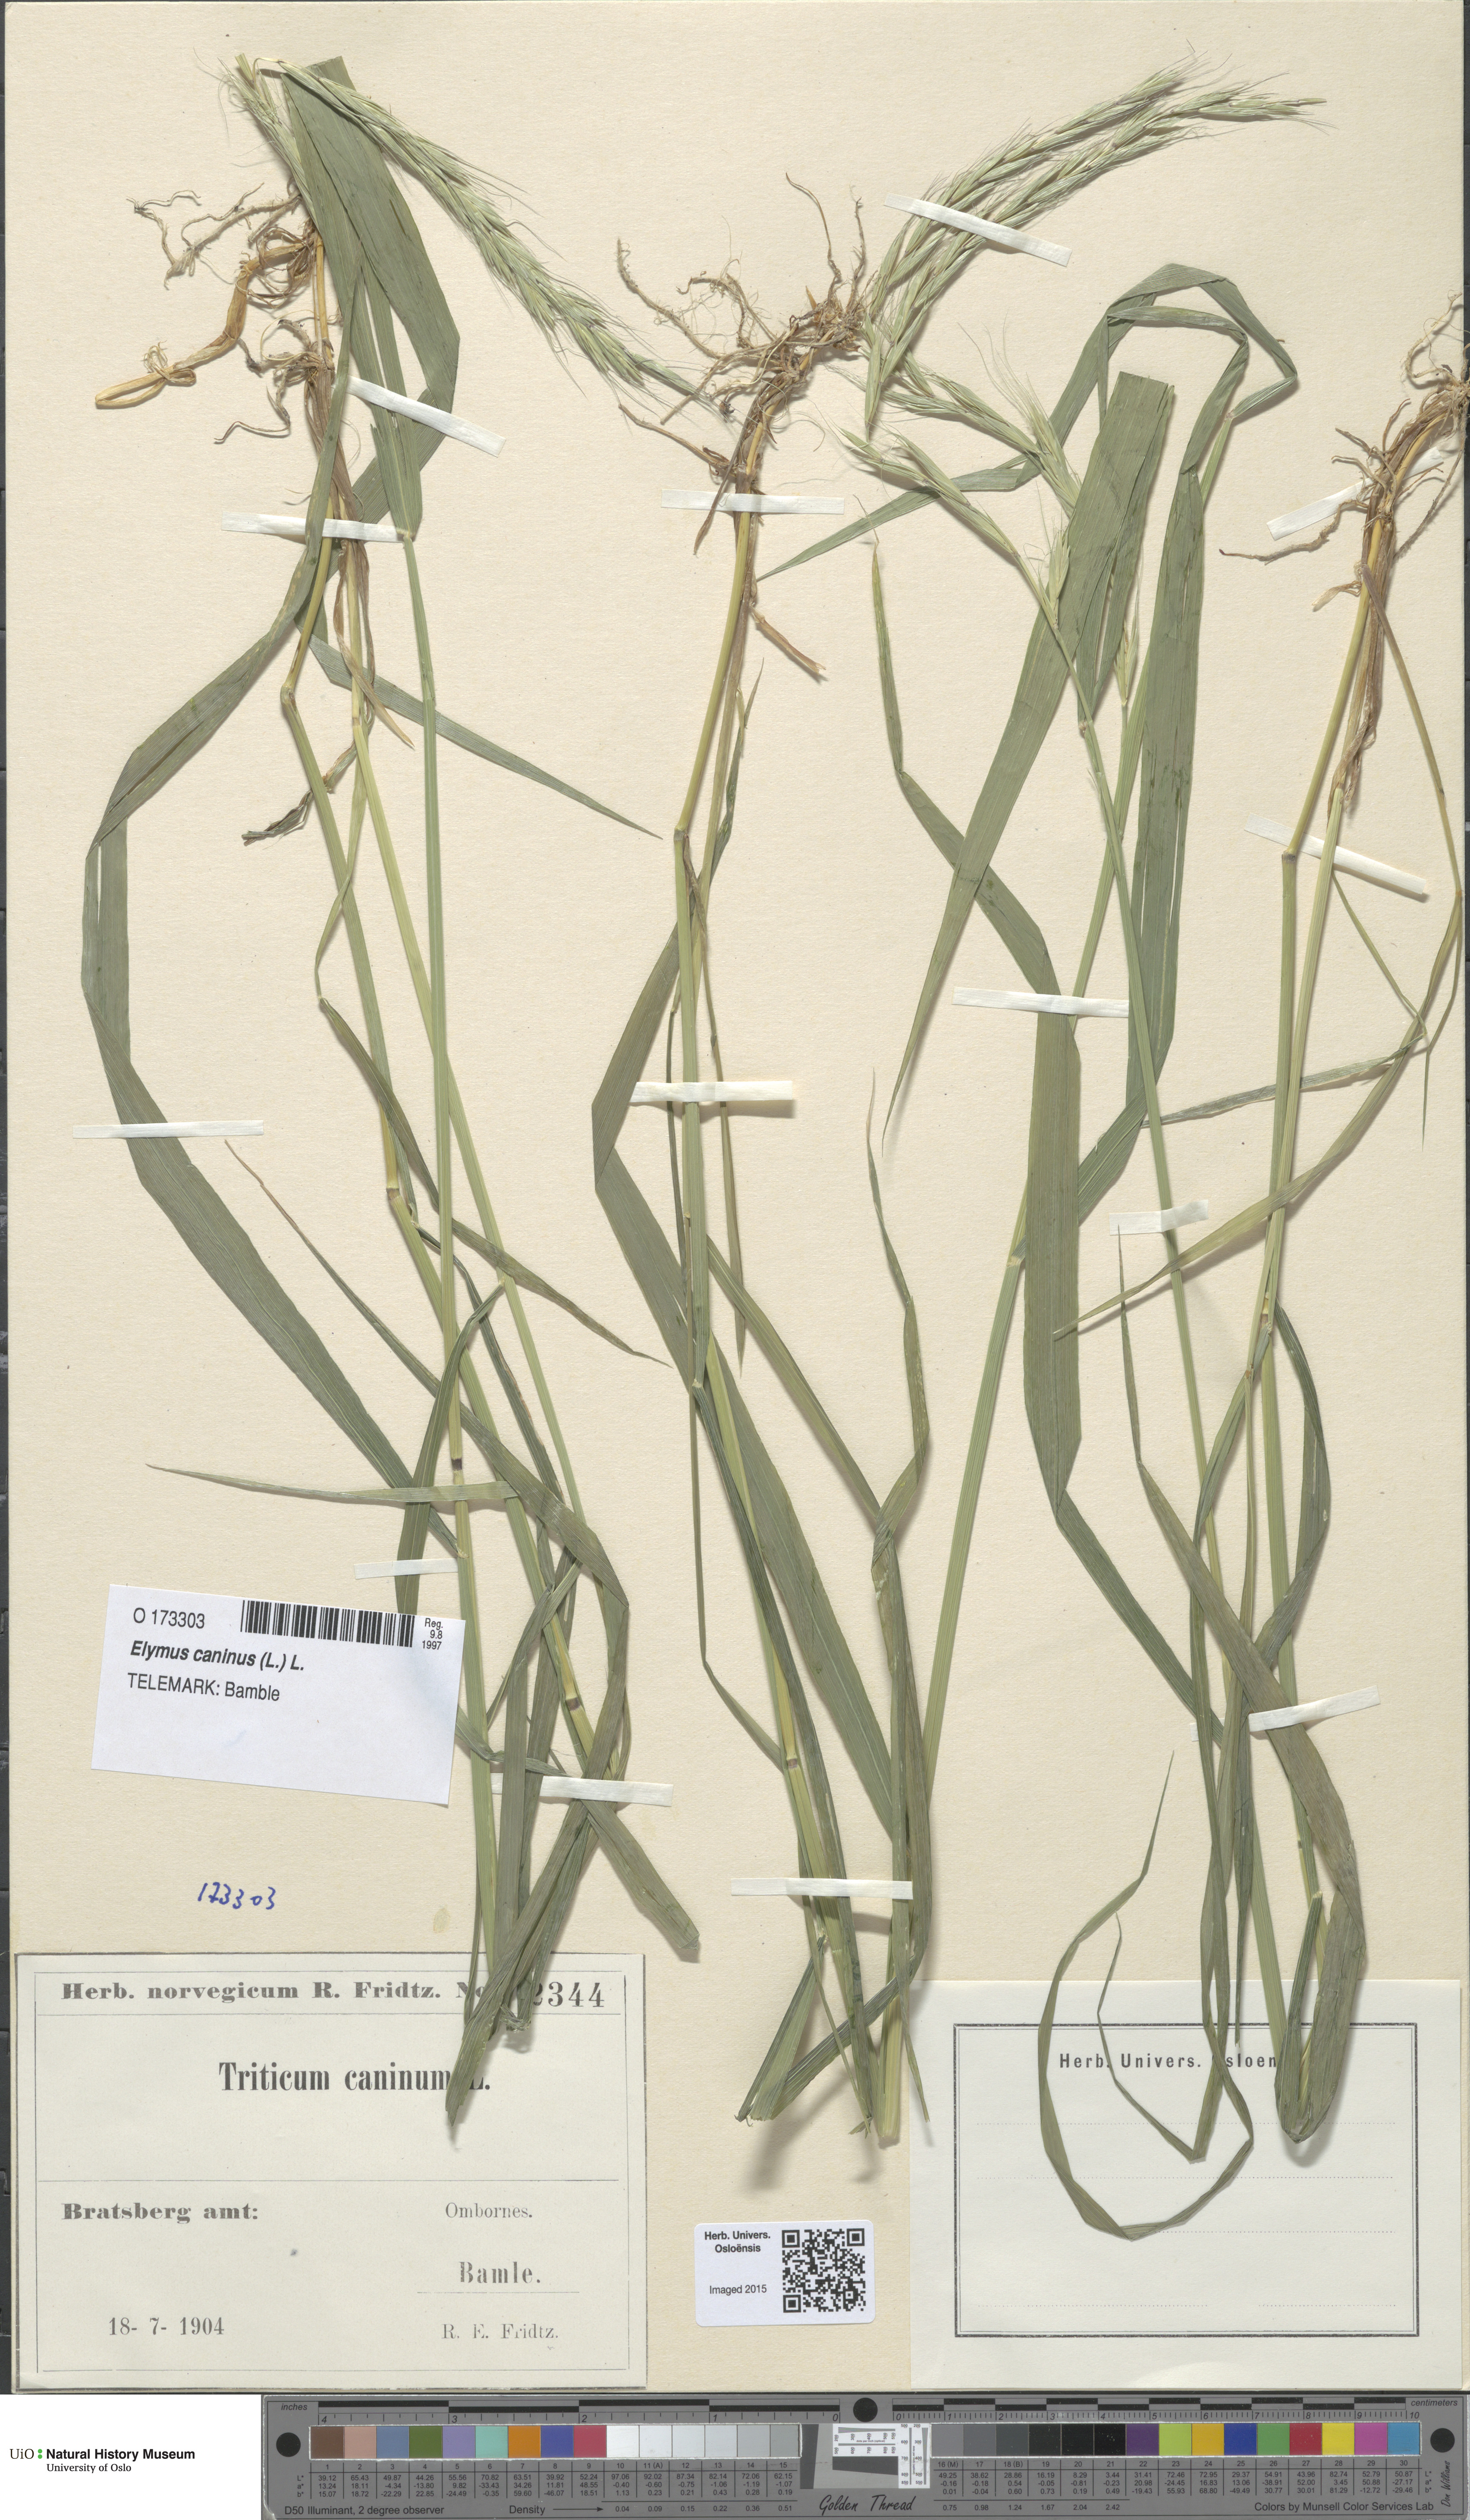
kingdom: Plantae
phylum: Tracheophyta
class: Liliopsida
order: Poales
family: Poaceae
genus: Elymus
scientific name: Elymus caninus
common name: Bearded couch
